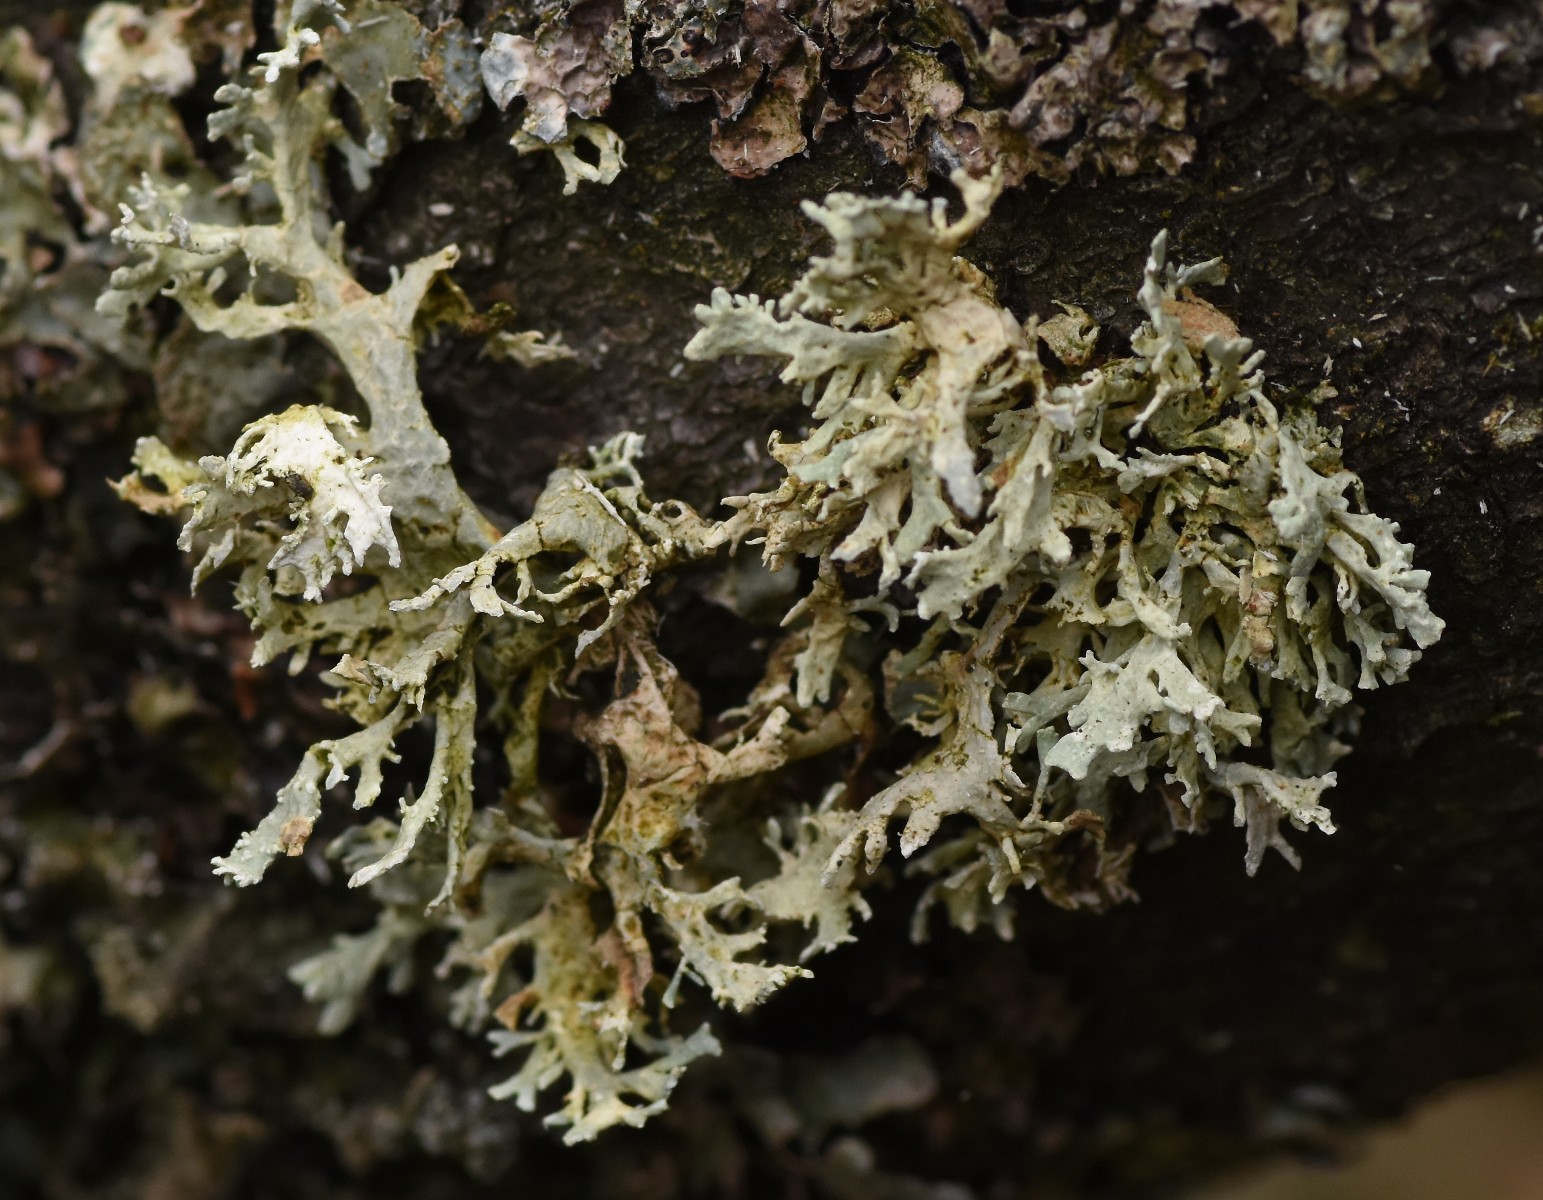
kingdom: Fungi
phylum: Ascomycota
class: Lecanoromycetes
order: Lecanorales
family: Parmeliaceae
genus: Evernia
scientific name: Evernia prunastri
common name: almindelig slåenlav
